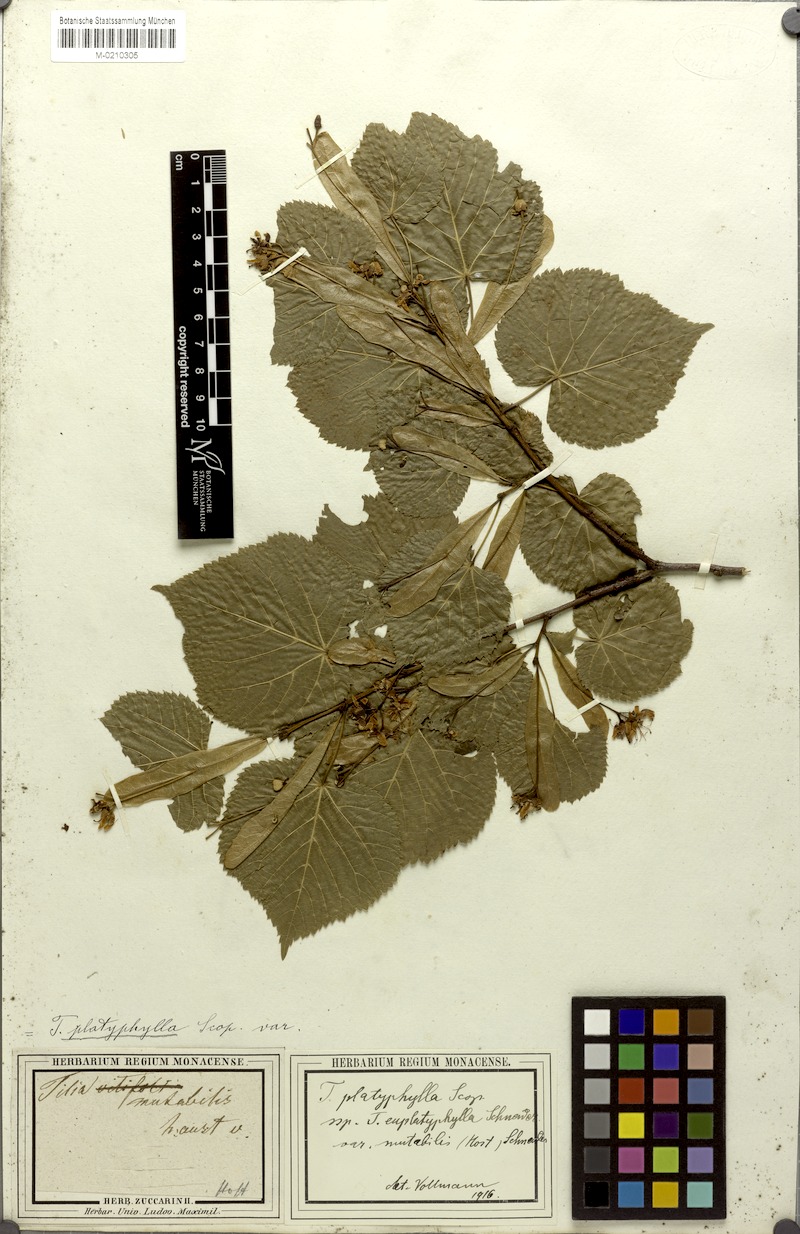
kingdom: Plantae
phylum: Tracheophyta
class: Magnoliopsida
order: Malvales
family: Malvaceae
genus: Tilia
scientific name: Tilia platyphyllos
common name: Large-leaved lime
